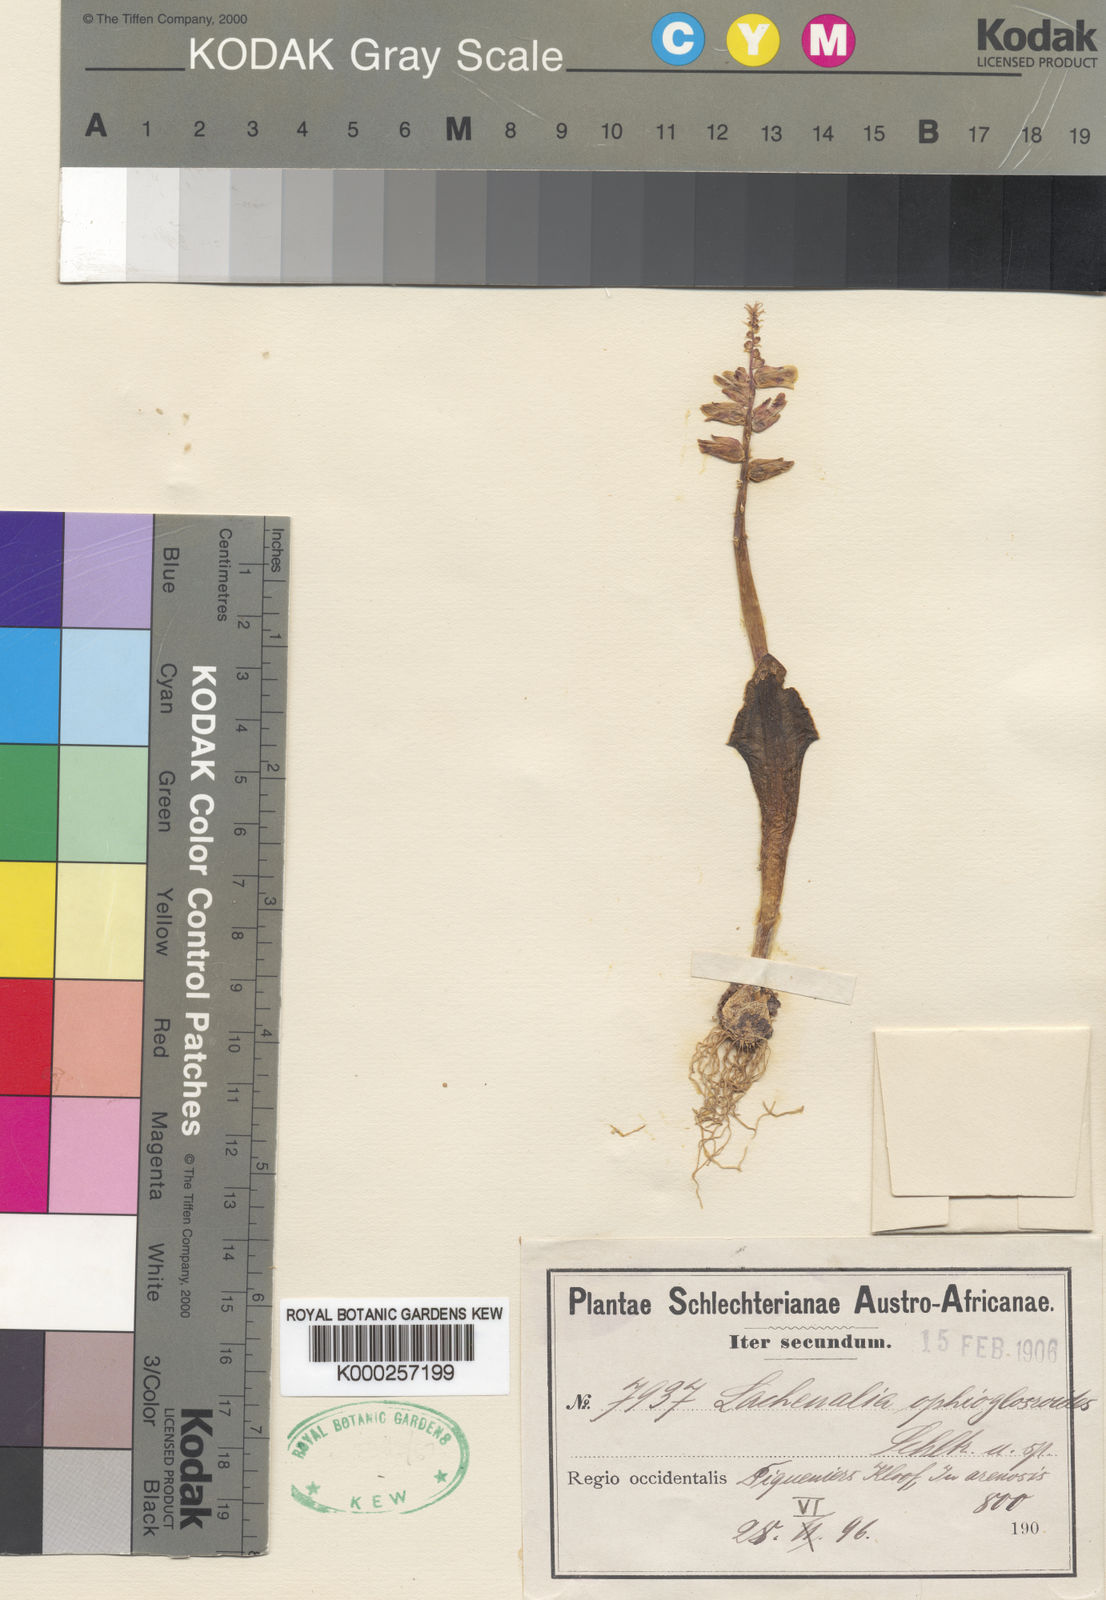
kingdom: Plantae
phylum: Tracheophyta
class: Liliopsida
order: Asparagales
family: Asparagaceae
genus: Lachenalia
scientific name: Lachenalia
